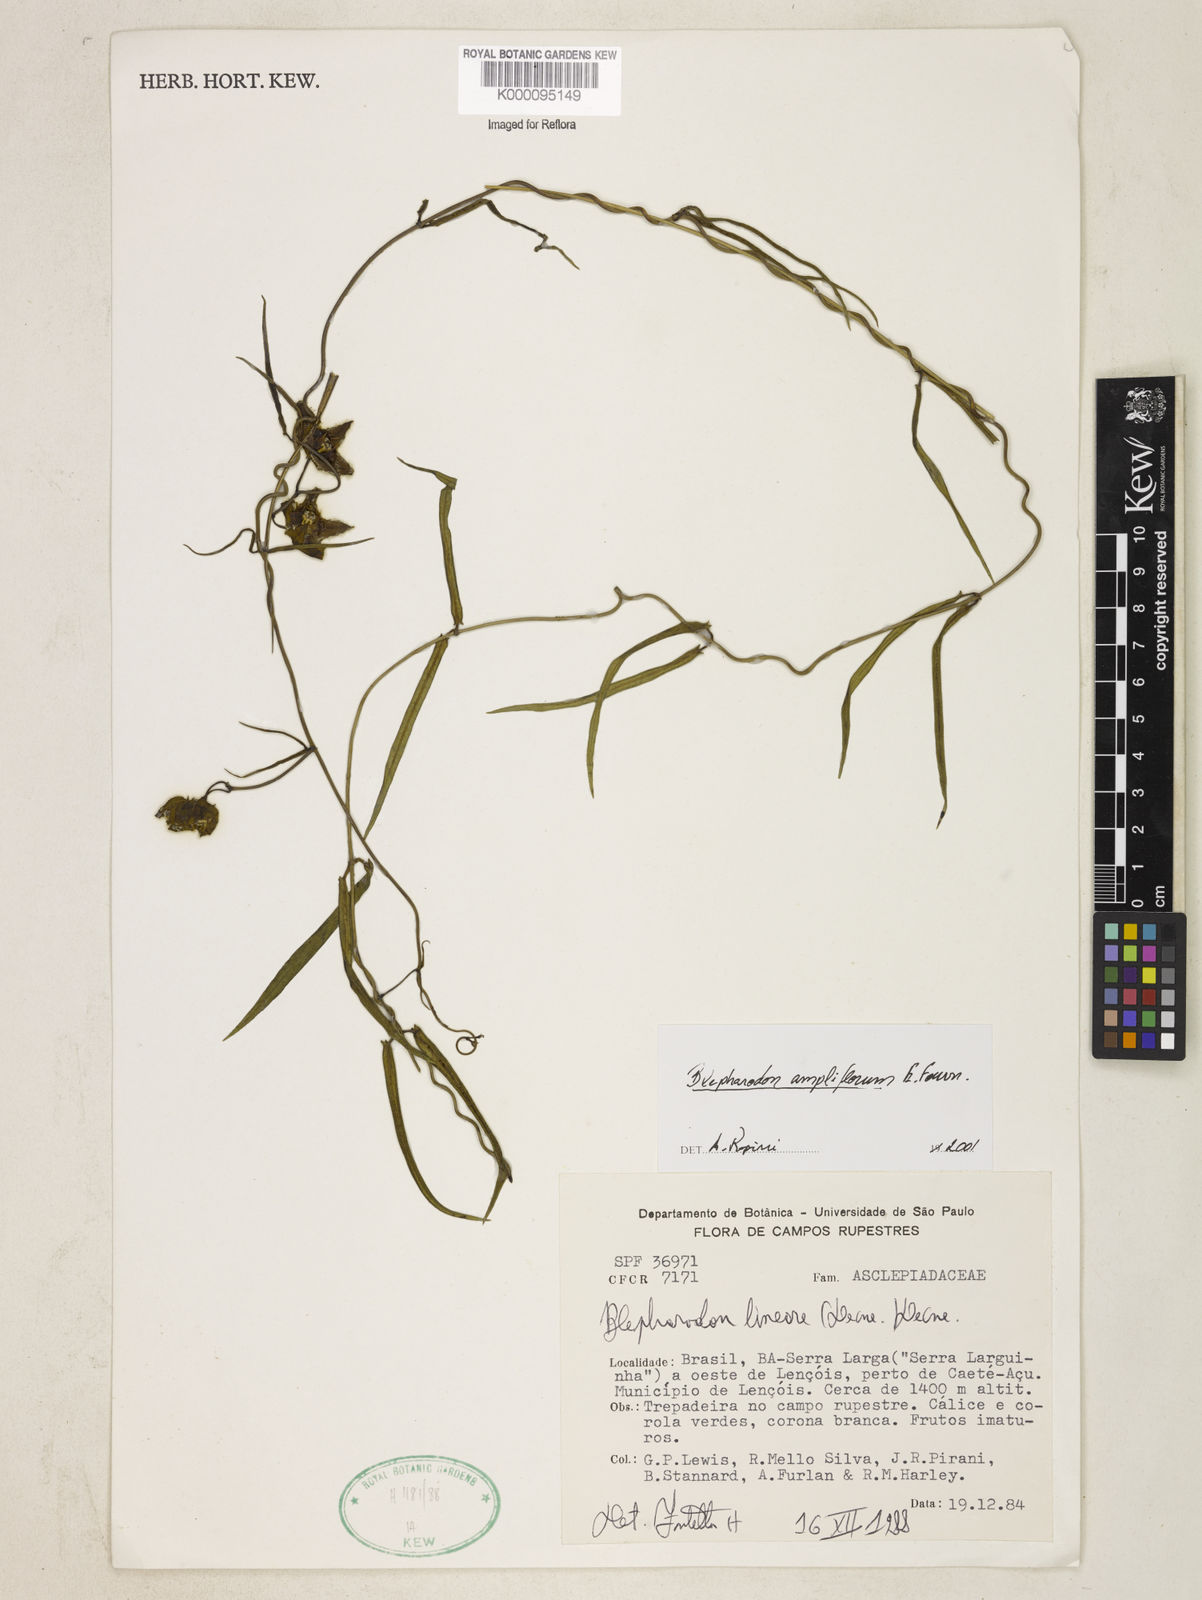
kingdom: Plantae
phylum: Tracheophyta
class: Magnoliopsida
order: Gentianales
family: Apocynaceae
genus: Blepharodon
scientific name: Blepharodon ampliflorum
